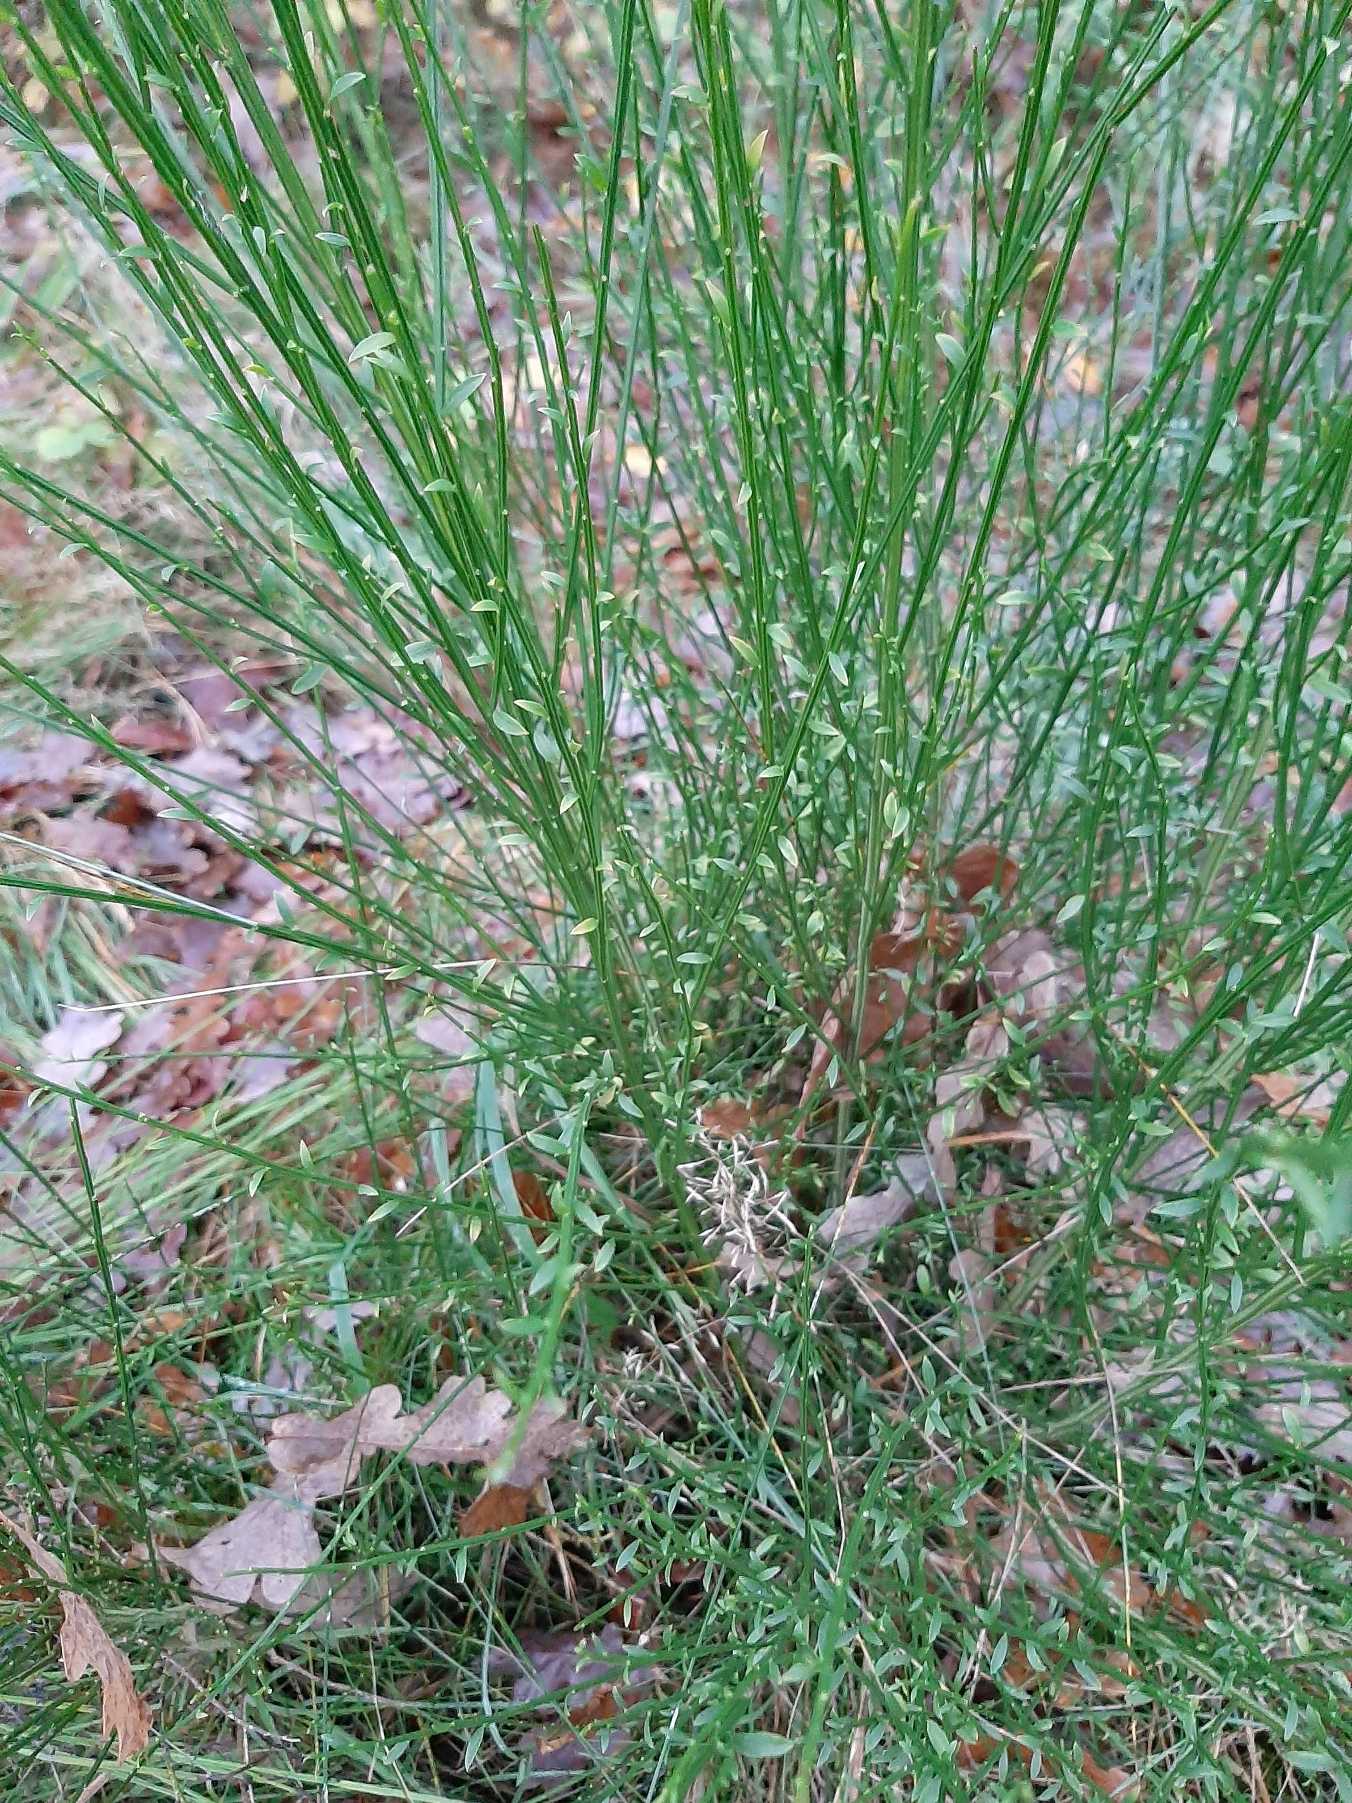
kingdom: Plantae
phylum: Tracheophyta
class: Magnoliopsida
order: Fabales
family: Fabaceae
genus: Cytisus
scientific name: Cytisus scoparius
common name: Almindelig gyvel
